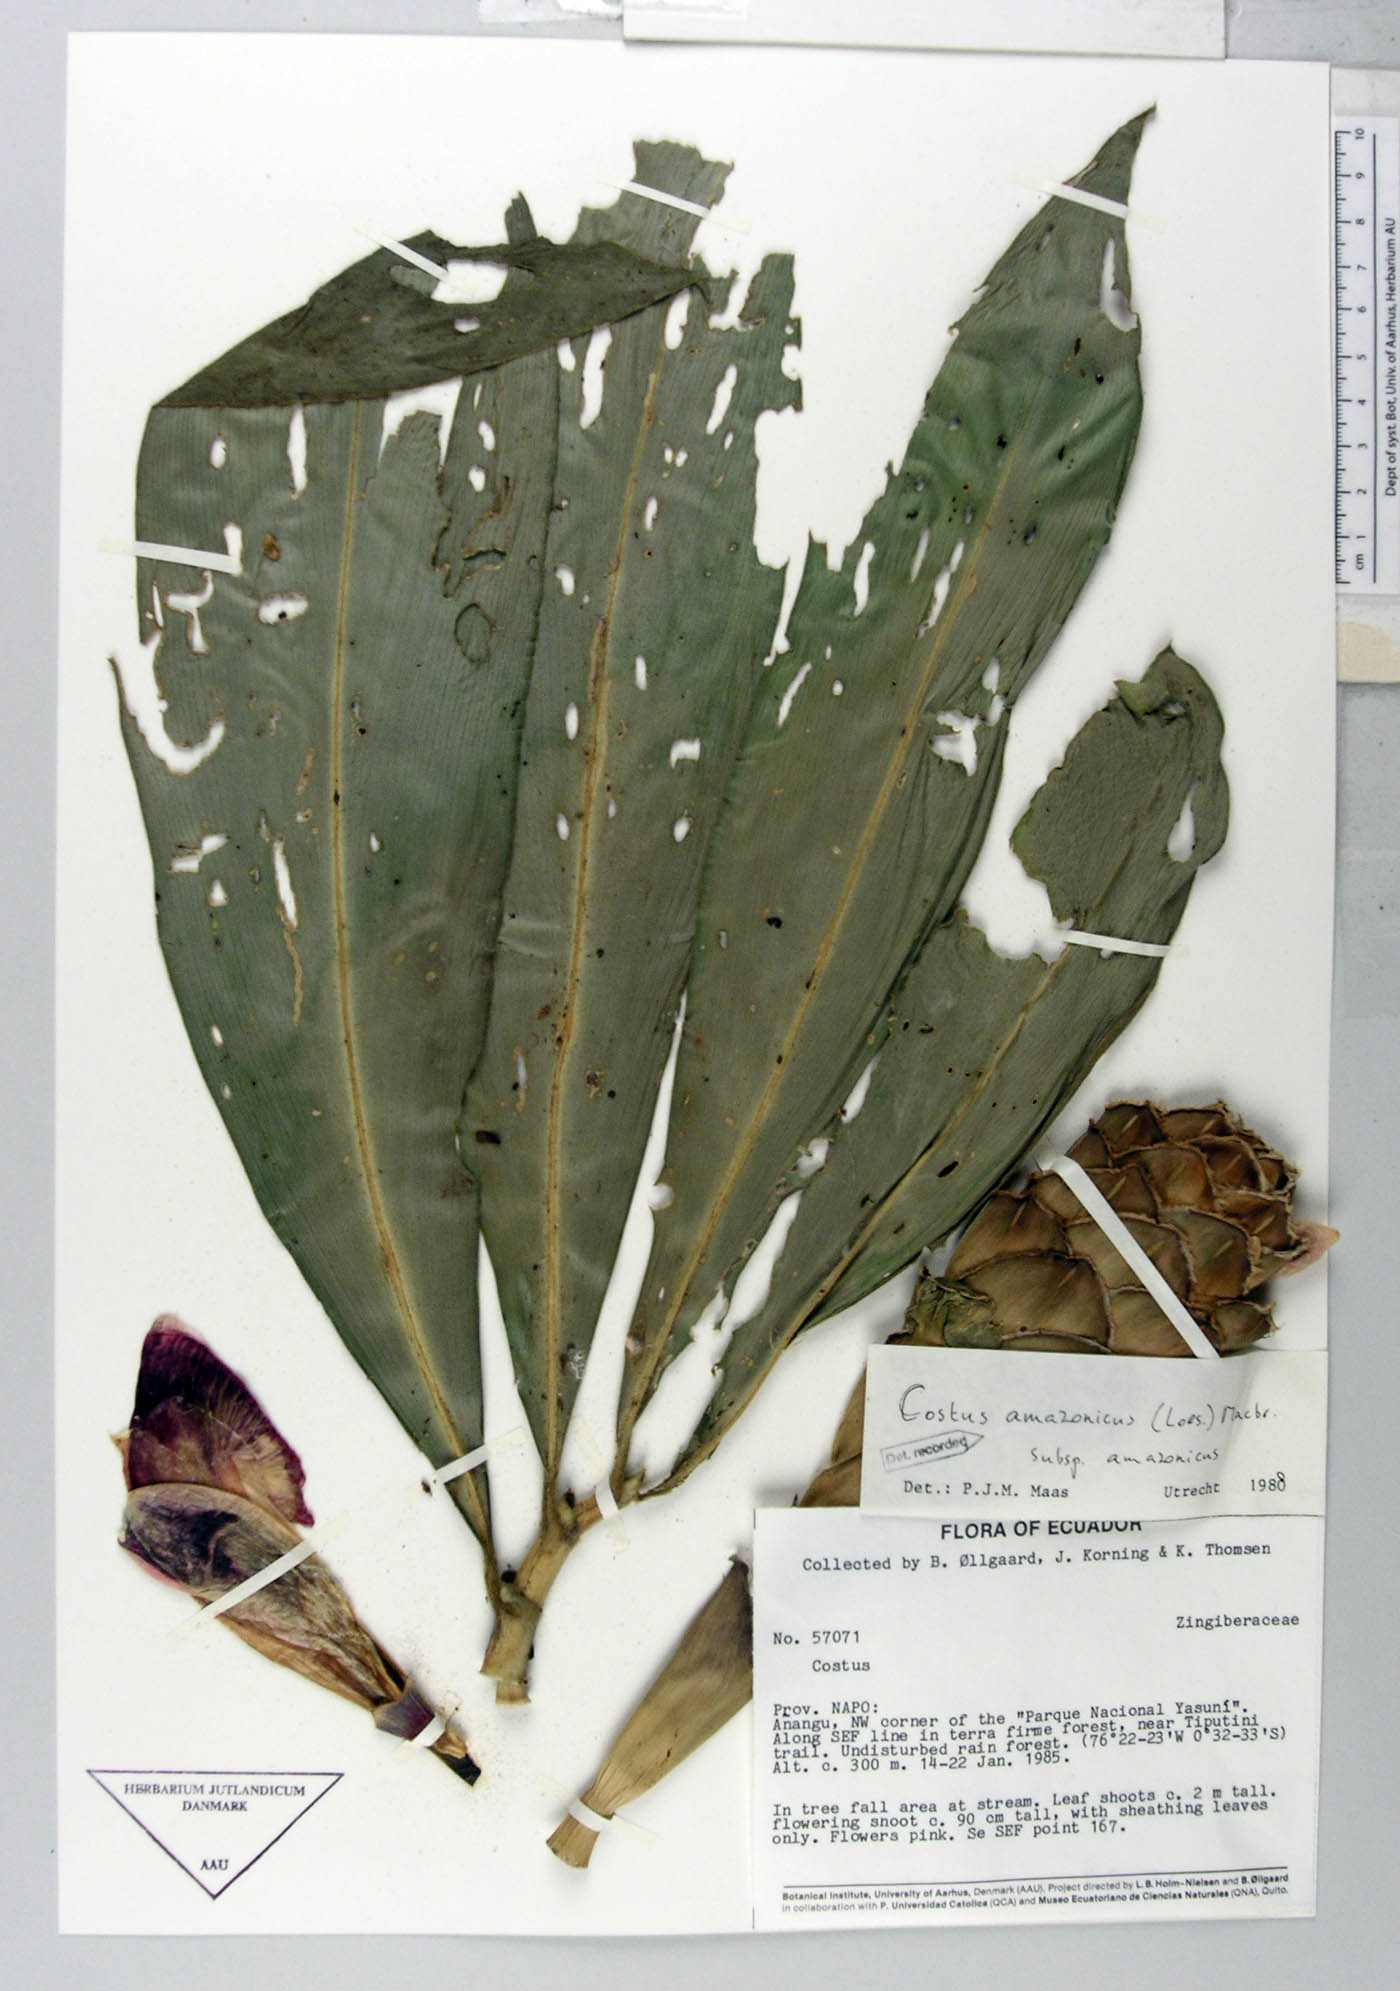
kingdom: Plantae
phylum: Tracheophyta
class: Liliopsida
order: Zingiberales
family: Costaceae
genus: Costus
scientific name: Costus amazonicus
